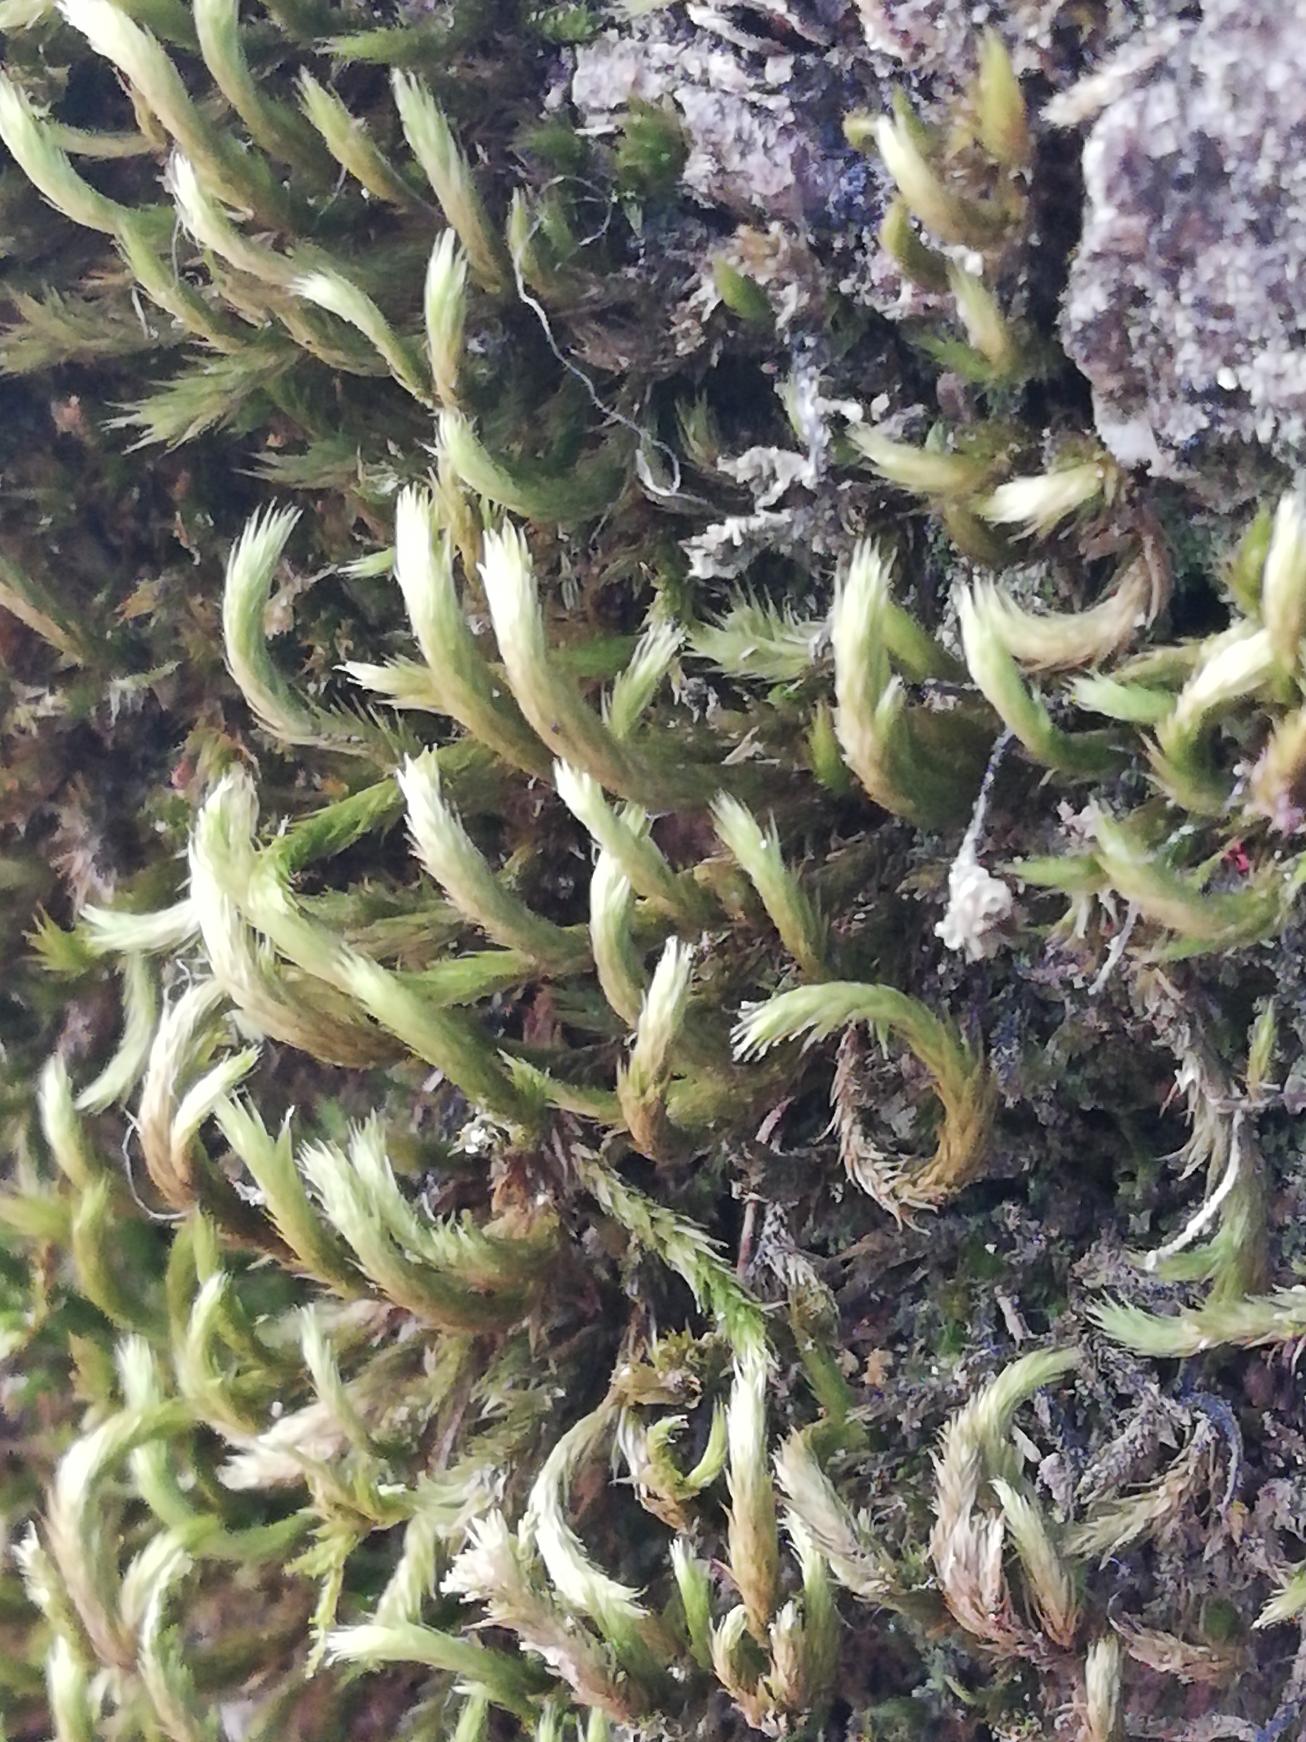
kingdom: Plantae
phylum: Bryophyta
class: Bryopsida
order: Hypnales
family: Leucodontaceae
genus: Leucodon
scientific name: Leucodon sciuroides
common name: Egernhale-buemos
